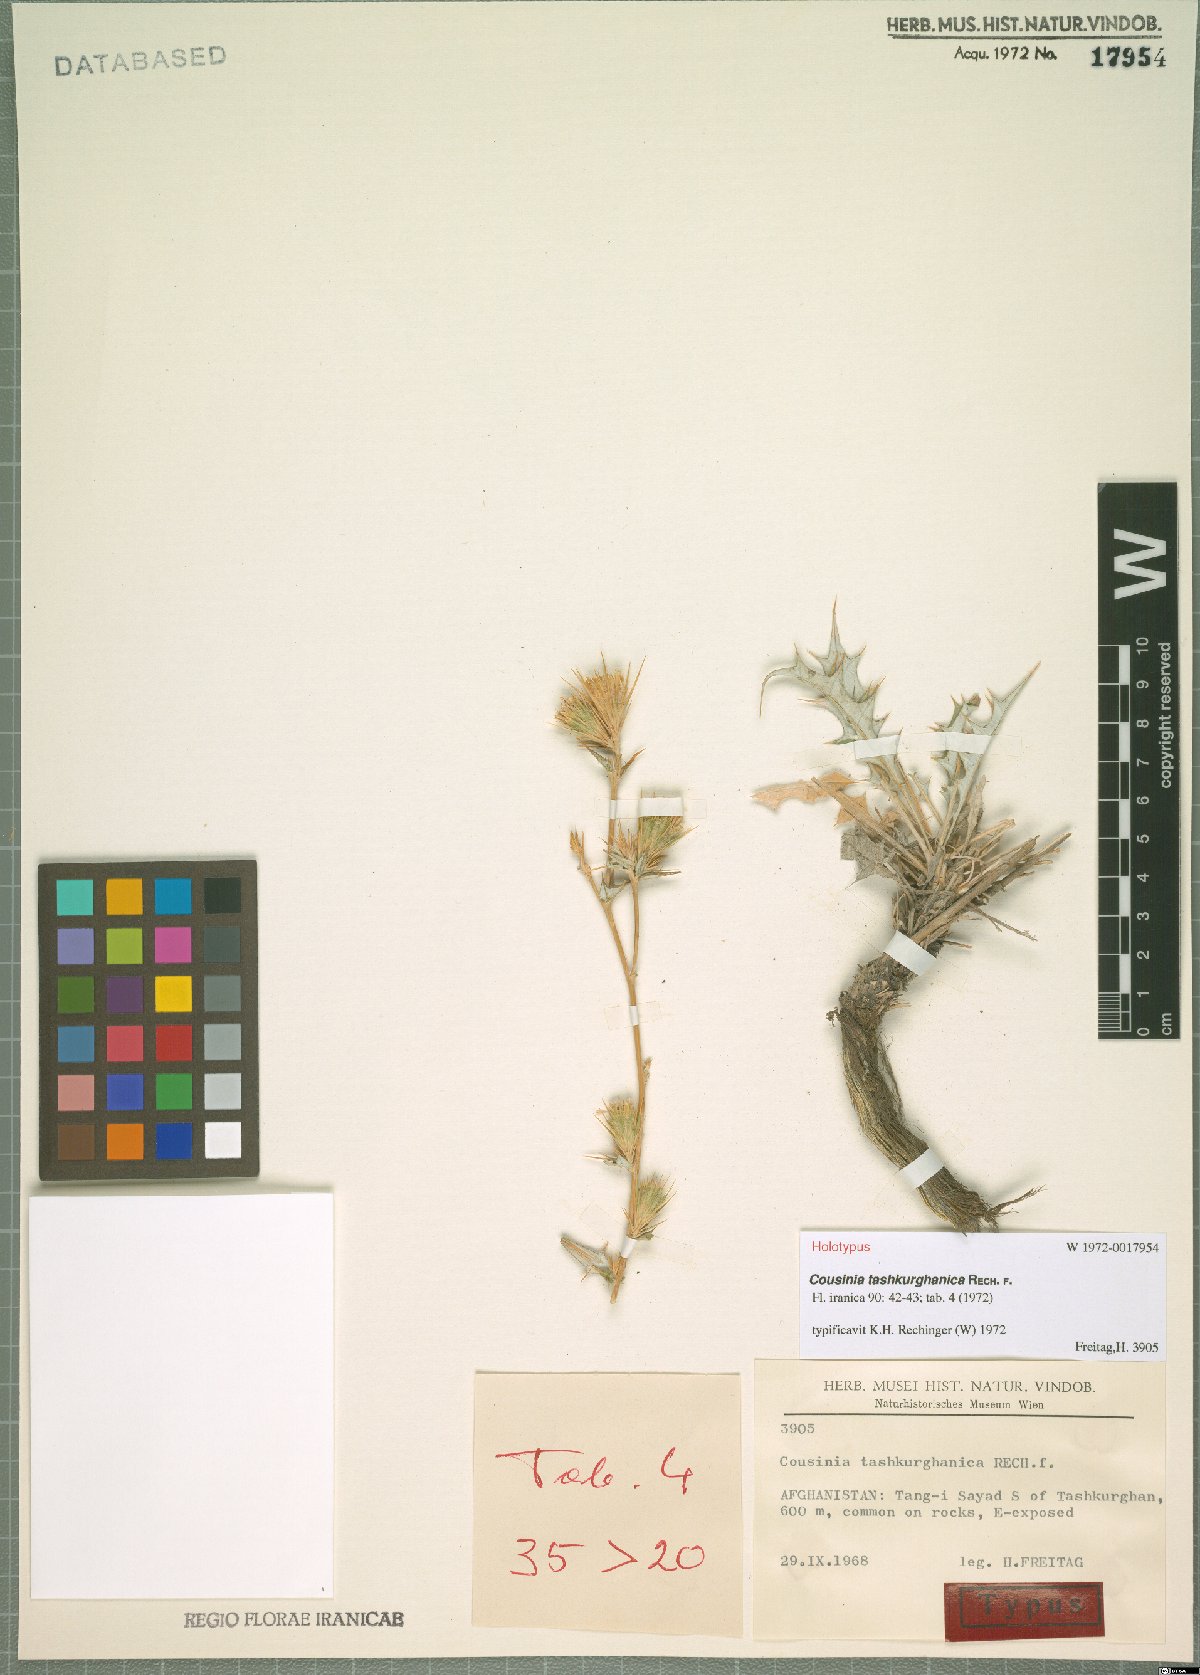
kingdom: Plantae
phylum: Tracheophyta
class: Magnoliopsida
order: Asterales
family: Asteraceae
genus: Cousinia
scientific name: Cousinia tashkurghanica
